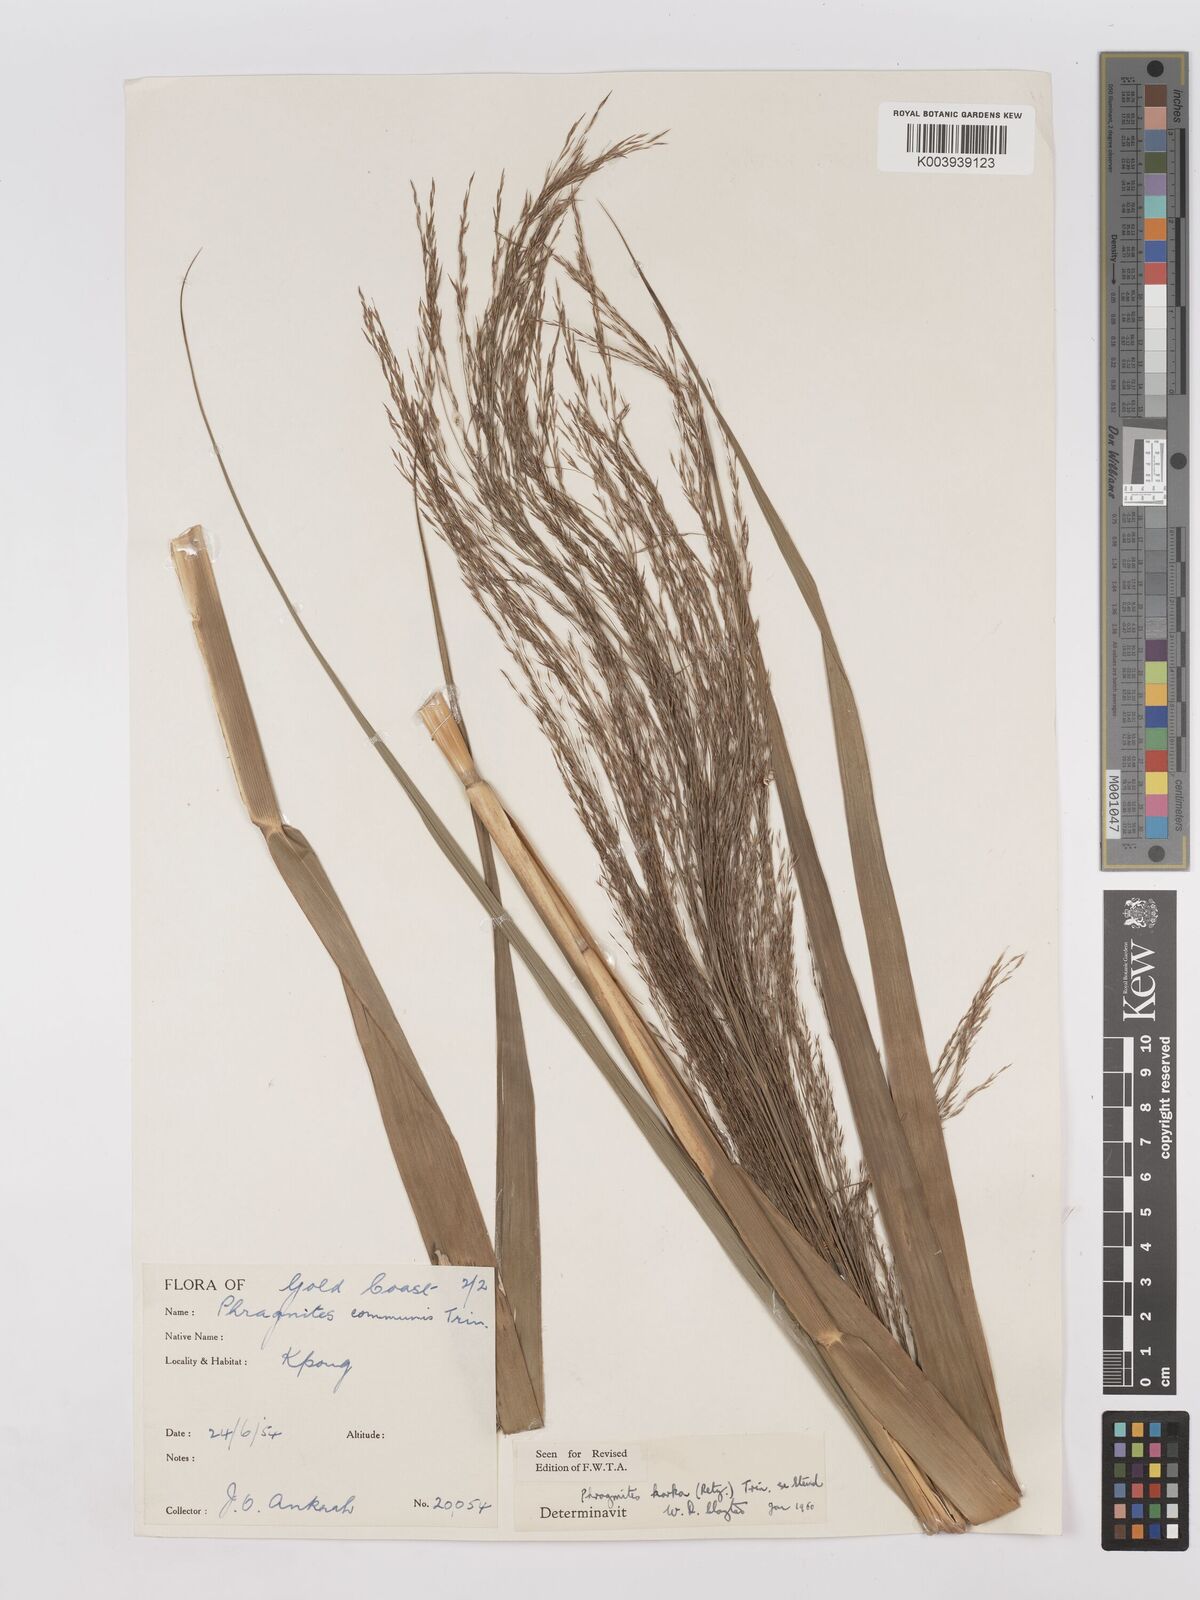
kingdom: Plantae
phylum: Tracheophyta
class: Liliopsida
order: Poales
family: Poaceae
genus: Phragmites
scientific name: Phragmites karka
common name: Tropical reed
